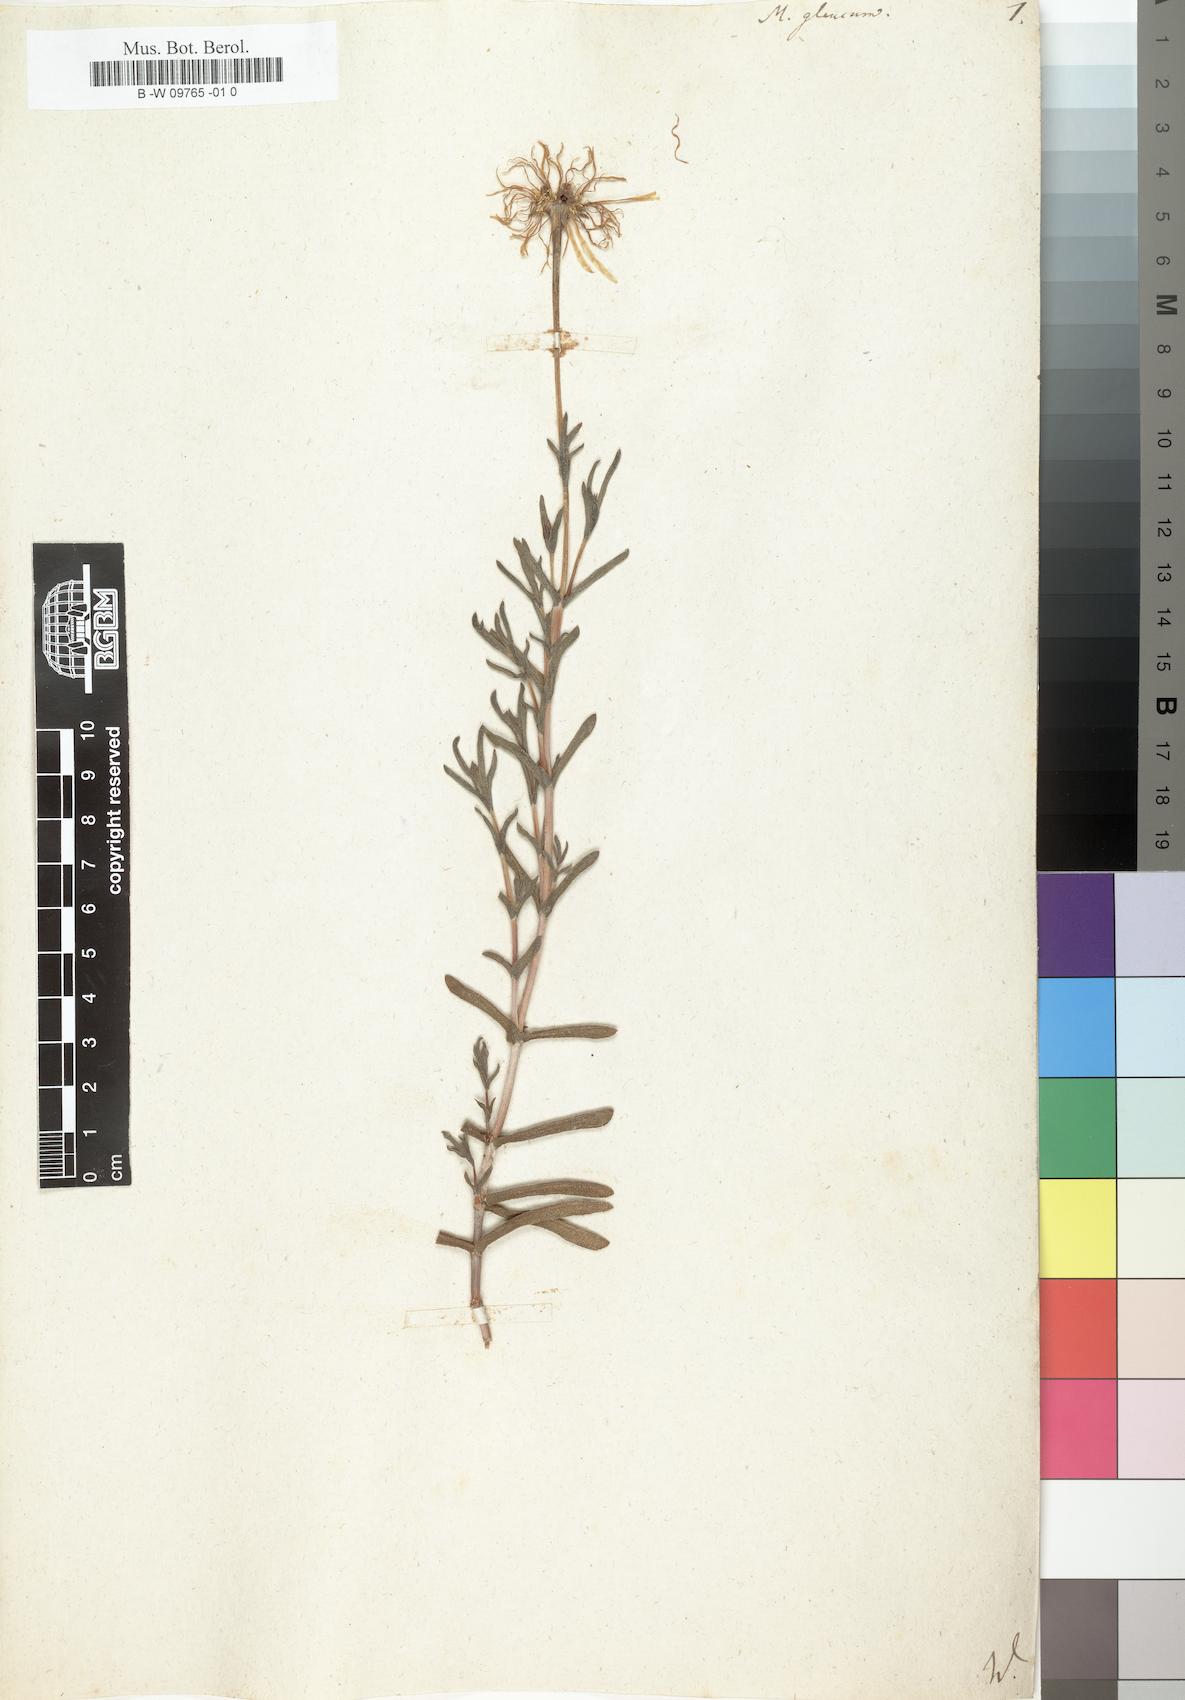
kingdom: Plantae
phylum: Tracheophyta
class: Magnoliopsida
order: Caryophyllales
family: Aizoaceae
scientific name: Aizoaceae
